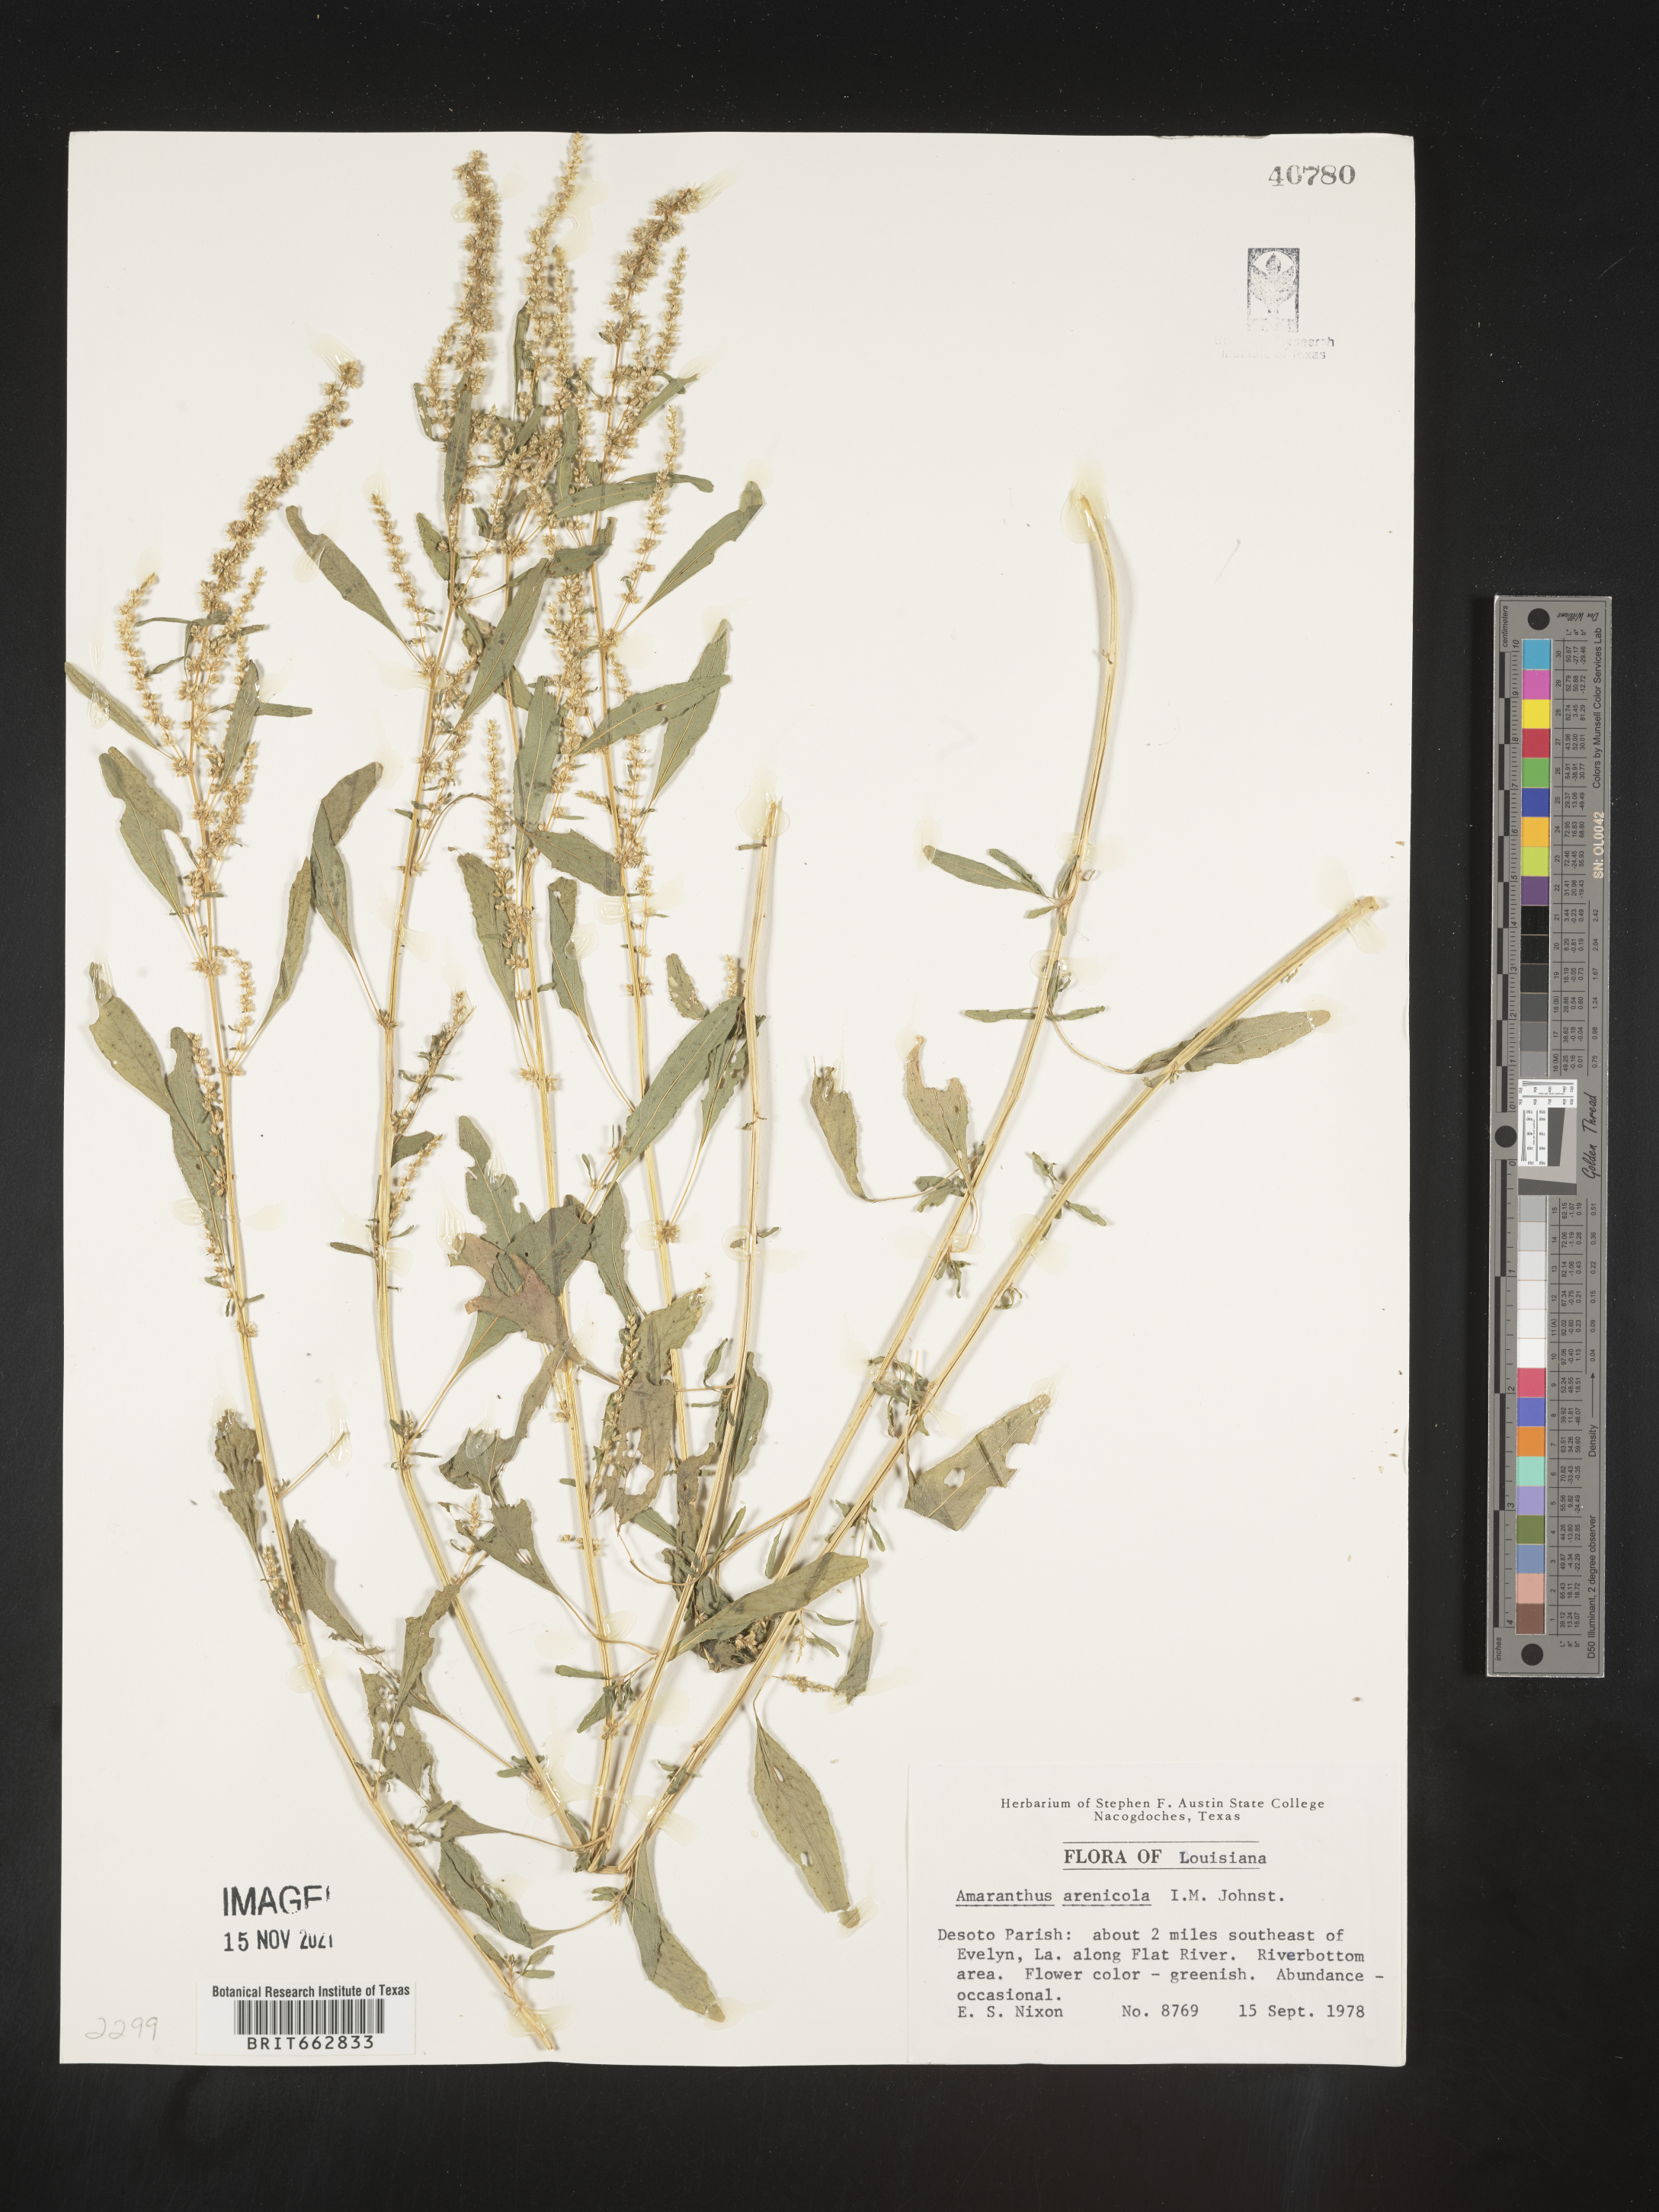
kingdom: Plantae
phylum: Tracheophyta
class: Magnoliopsida
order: Caryophyllales
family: Amaranthaceae
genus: Amaranthus
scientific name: Amaranthus arenicola
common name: Sandhills amaranth
